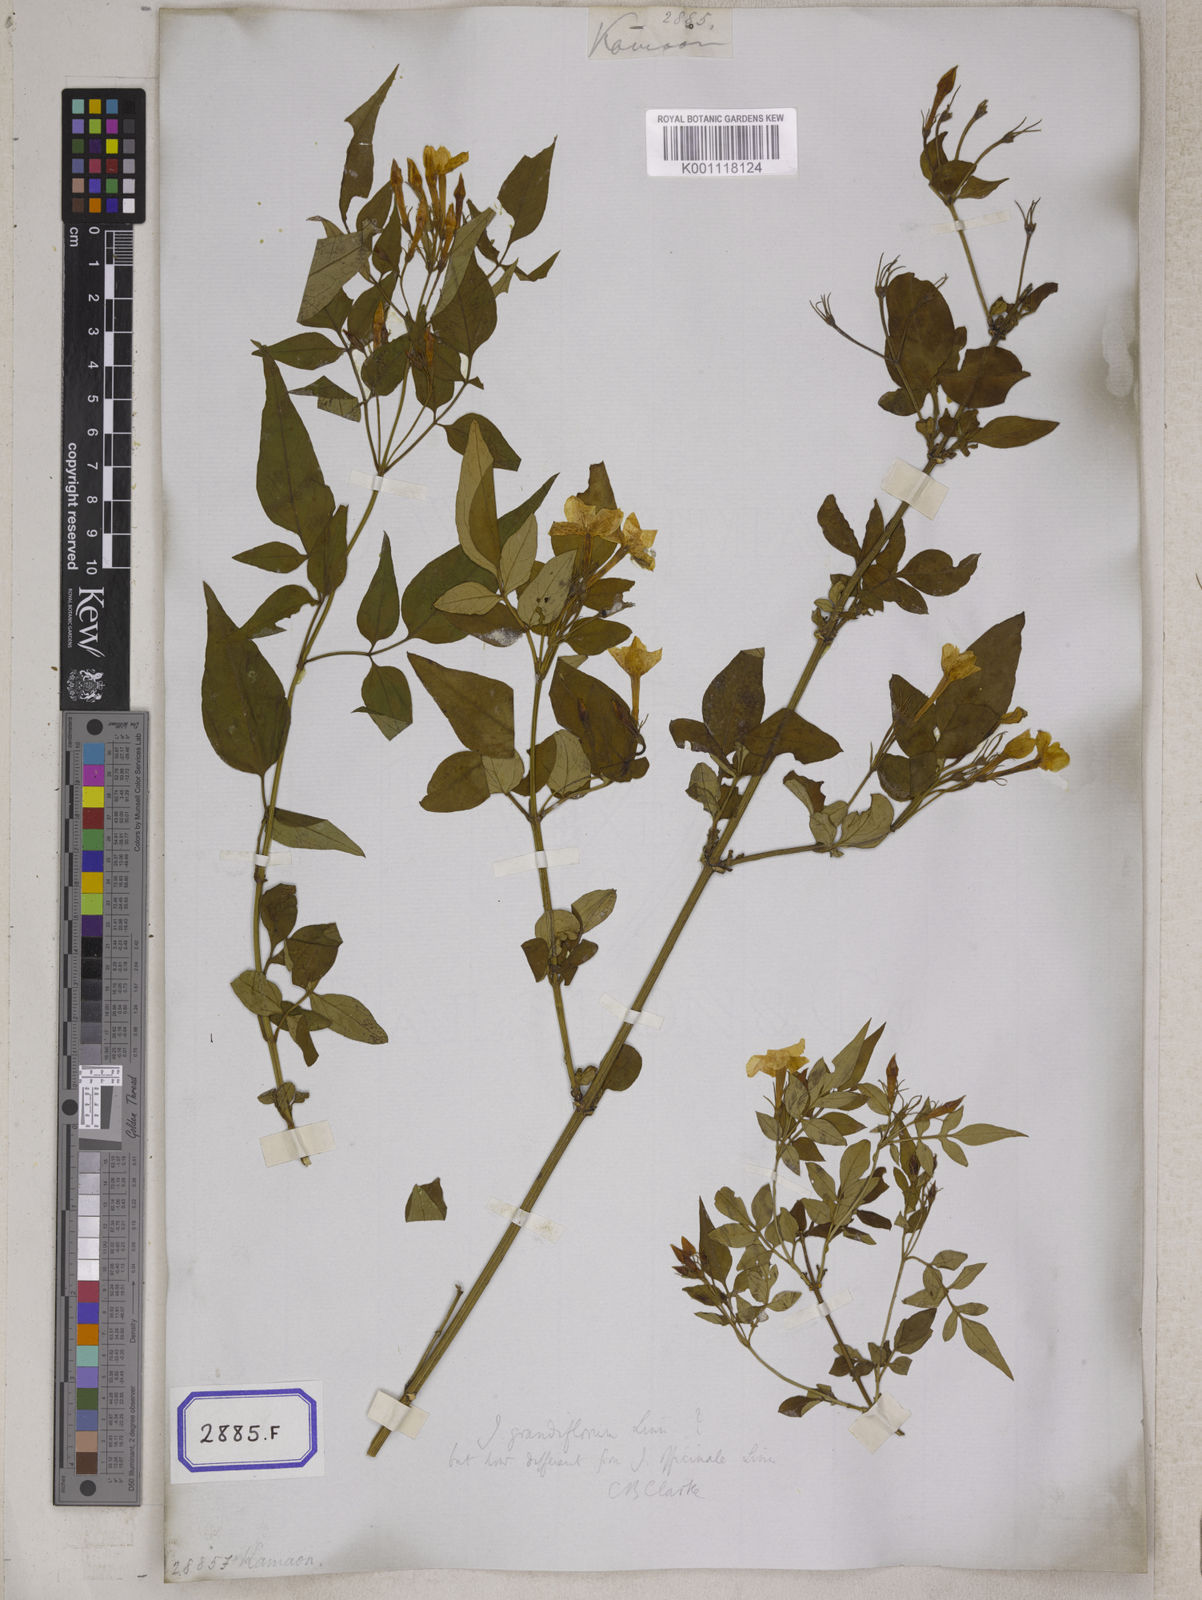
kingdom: Plantae
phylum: Tracheophyta
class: Magnoliopsida
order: Lamiales
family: Oleaceae
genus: Jasminum
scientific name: Jasminum grandiflorum
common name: Catalonian jasmine
